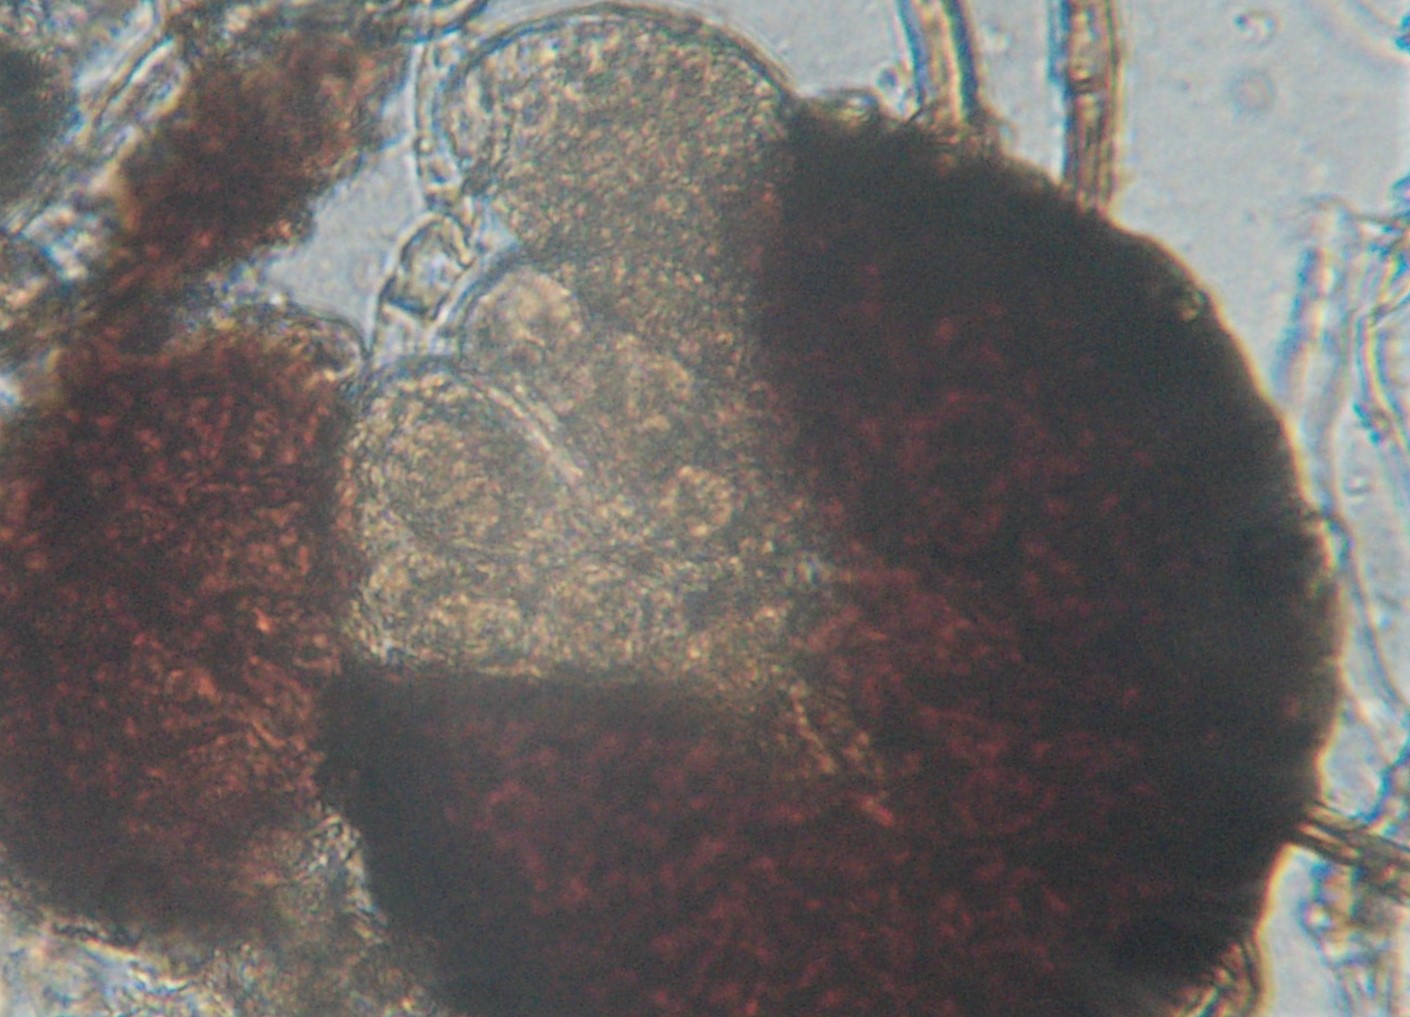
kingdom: Fungi
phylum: Ascomycota
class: Leotiomycetes
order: Helotiales
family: Erysiphaceae
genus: Erysiphe
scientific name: Erysiphe necator
